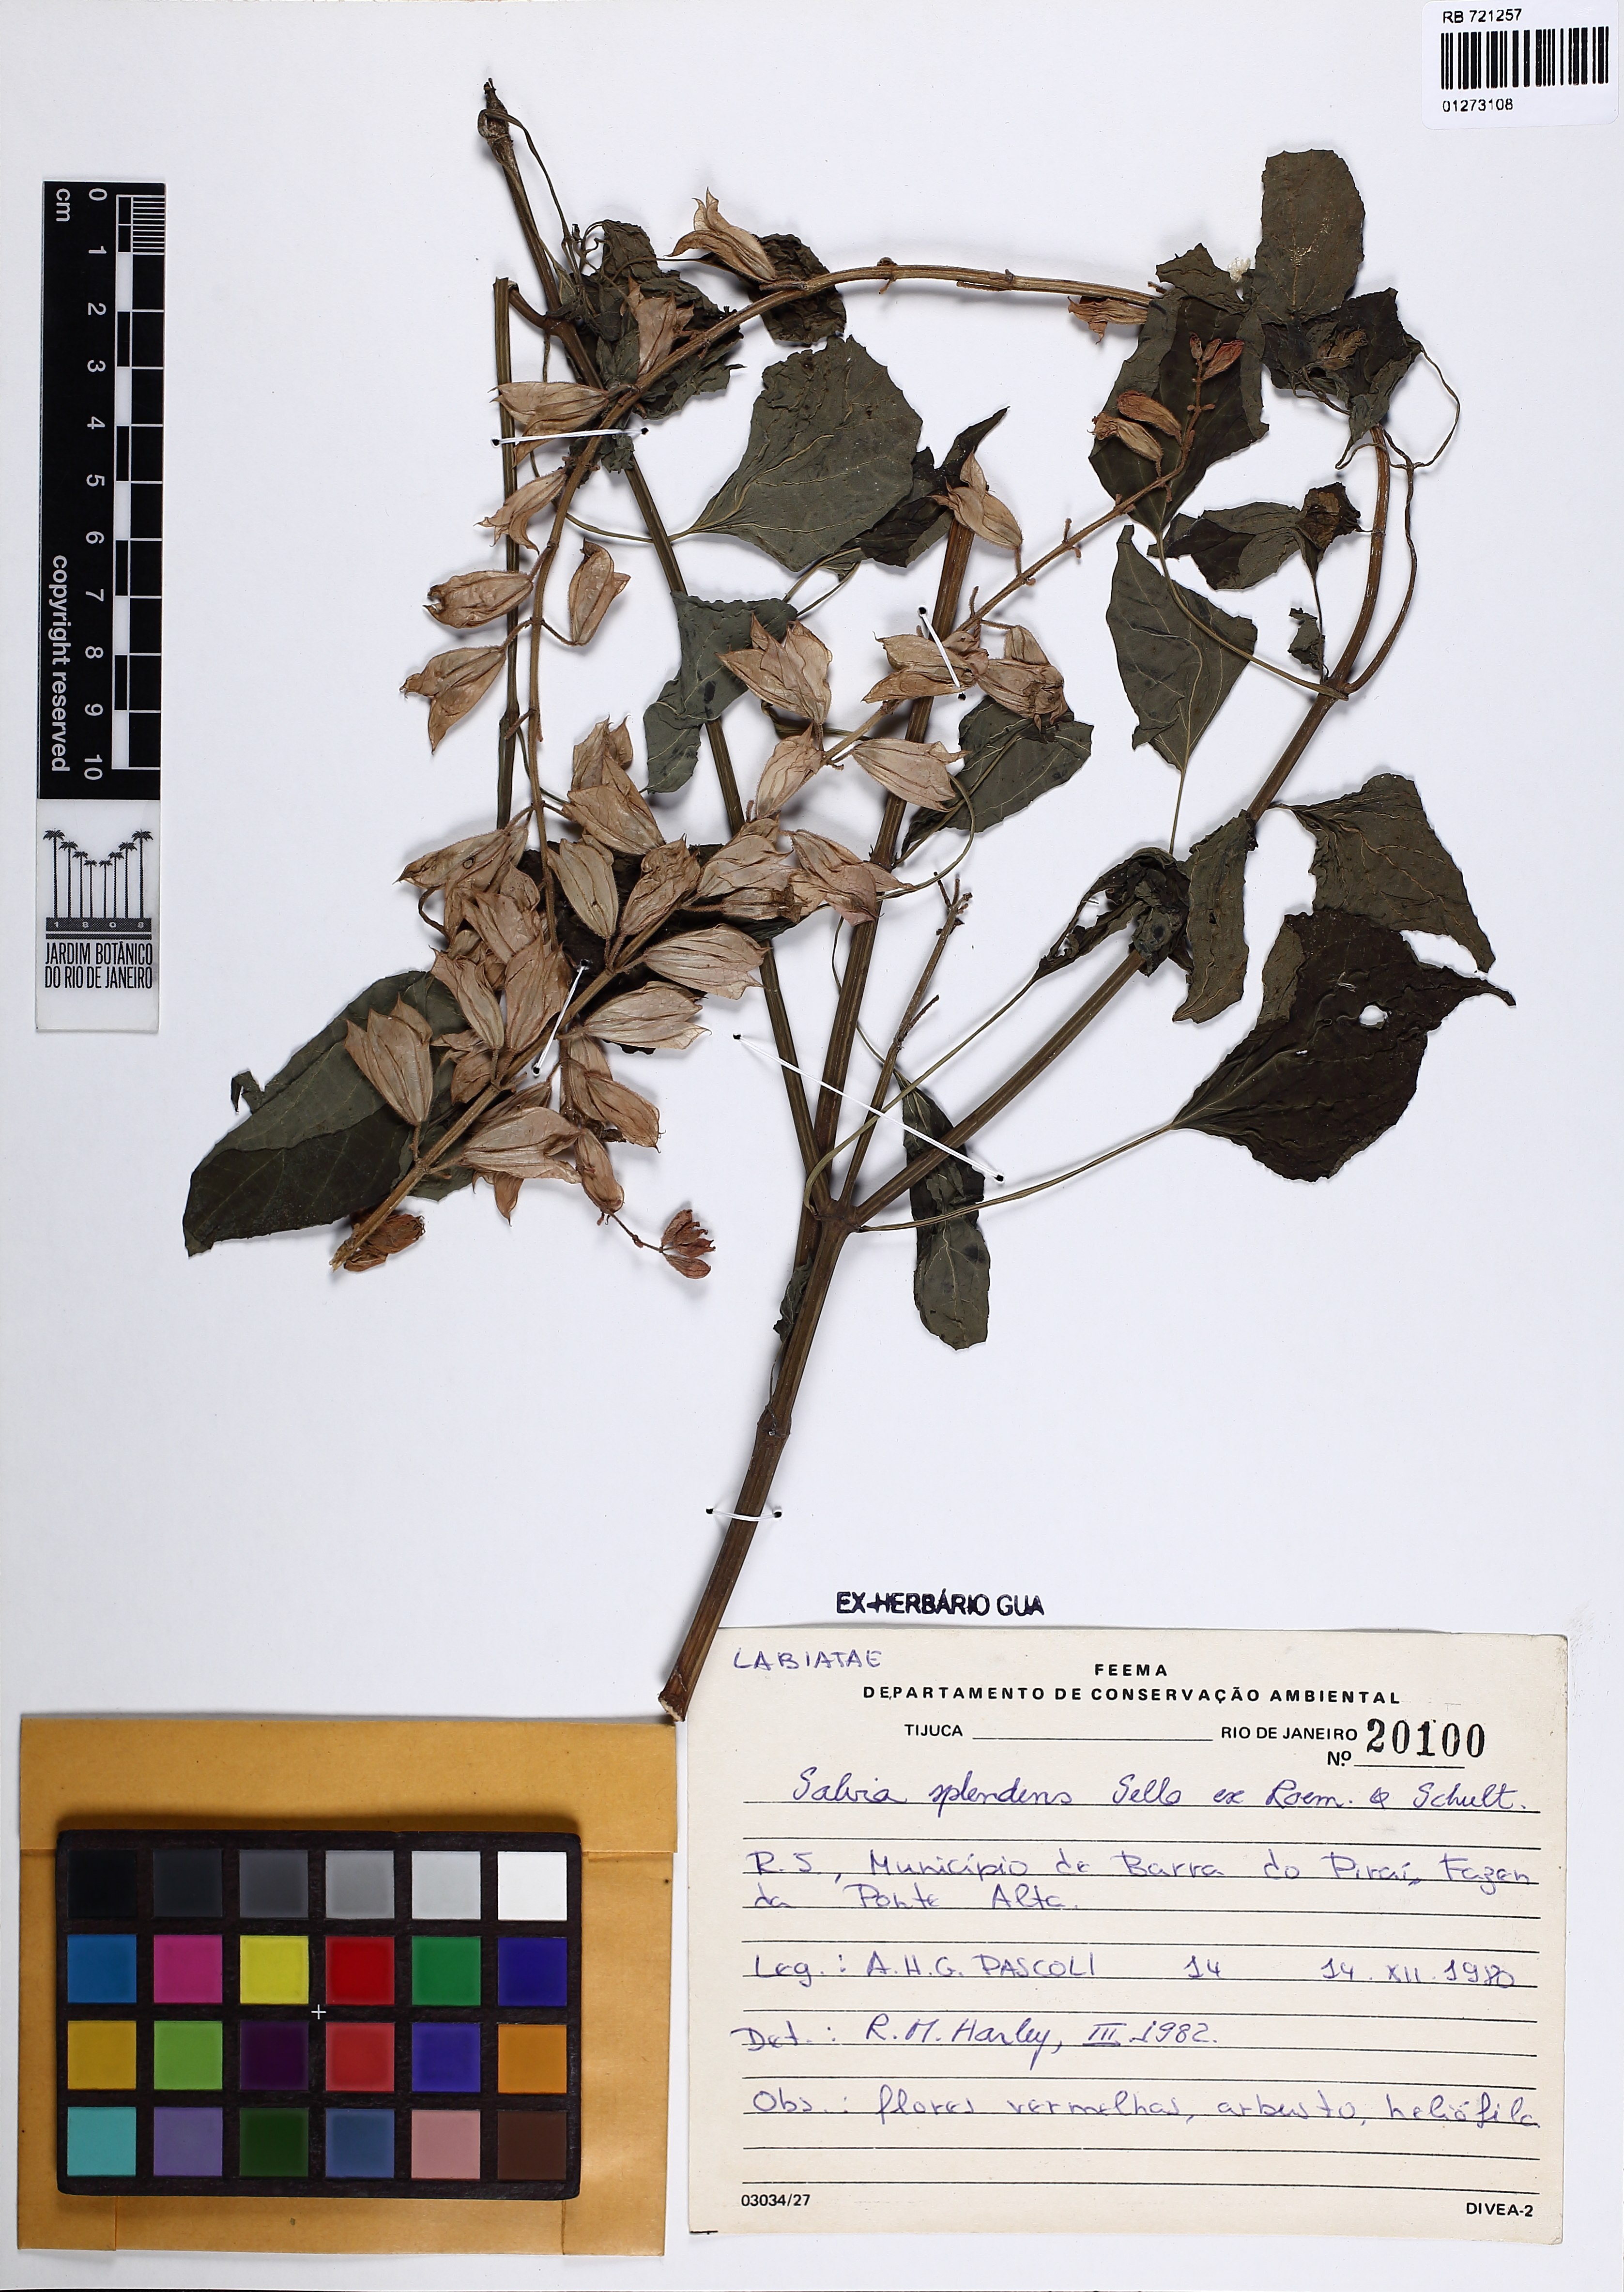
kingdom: Plantae
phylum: Tracheophyta
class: Magnoliopsida
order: Lamiales
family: Lamiaceae
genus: Salvia
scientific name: Salvia splendens
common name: Scarlet sage
